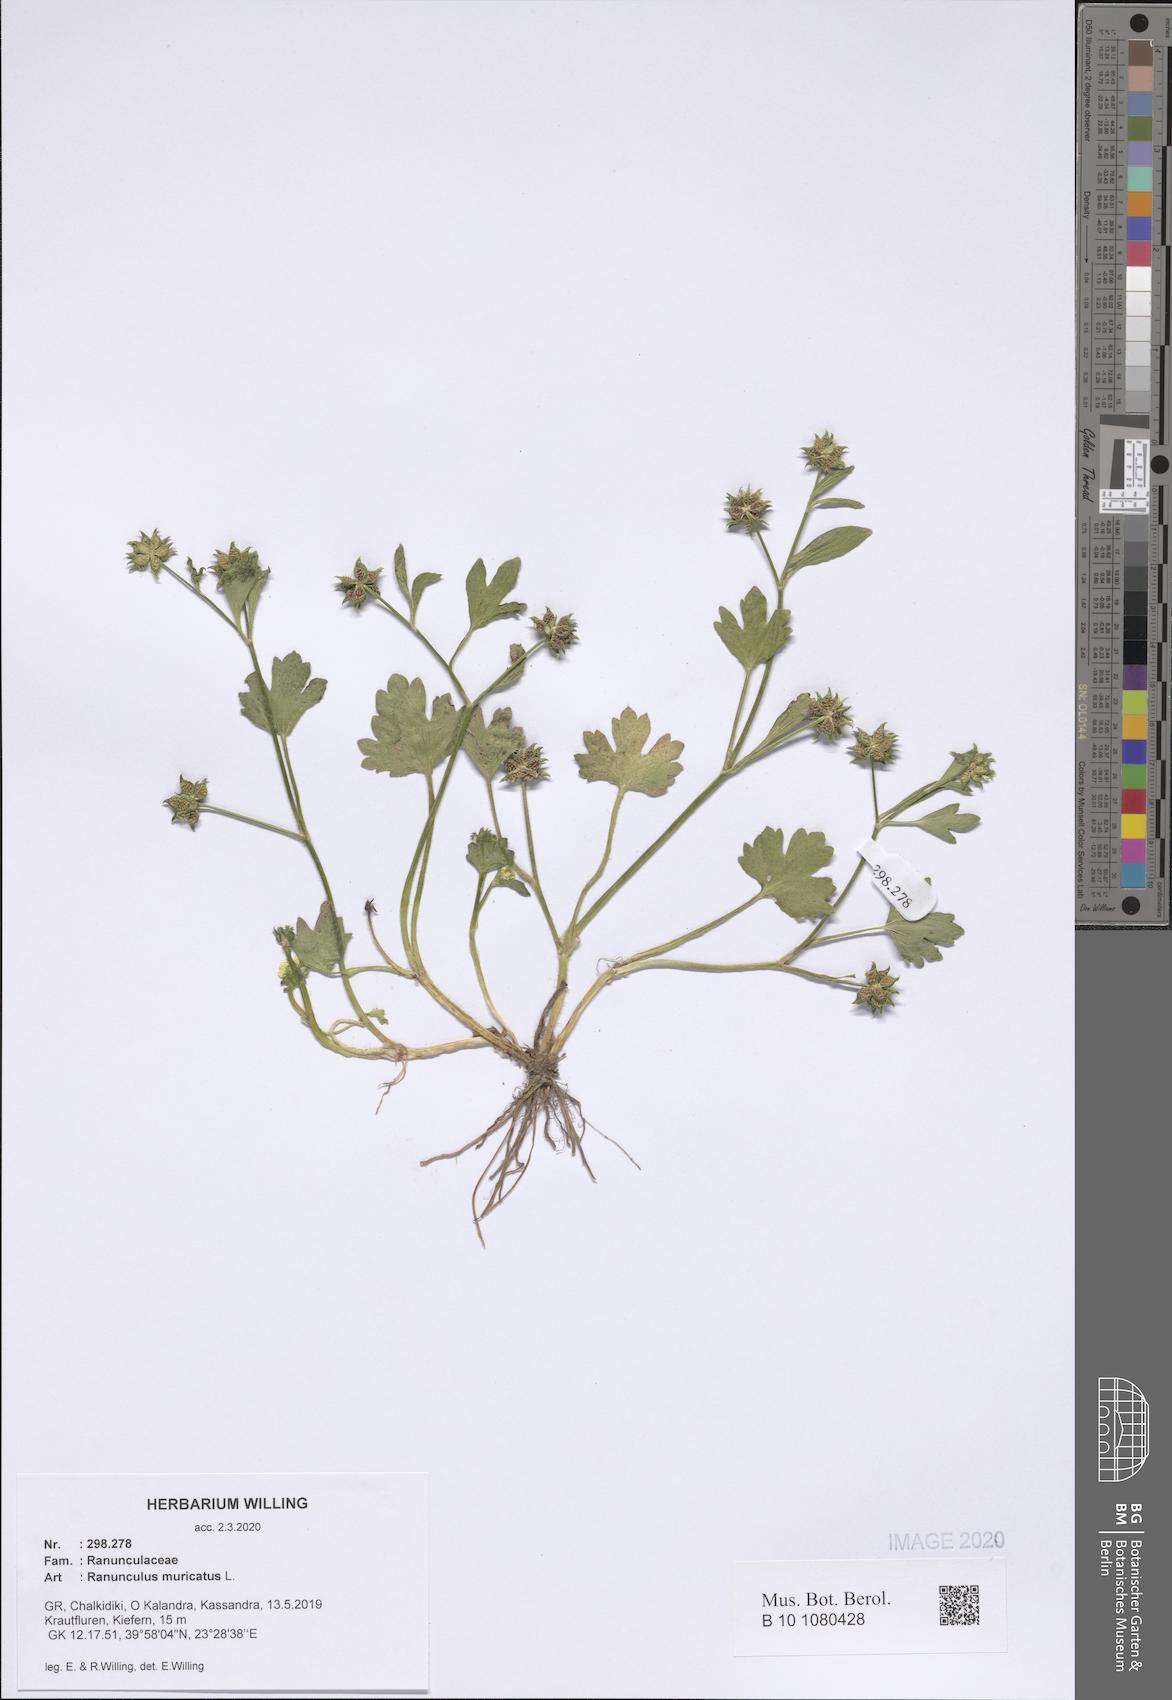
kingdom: Plantae
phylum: Tracheophyta
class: Magnoliopsida
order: Ranunculales
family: Ranunculaceae
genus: Ranunculus
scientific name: Ranunculus muricatus
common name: Rough-fruited buttercup
